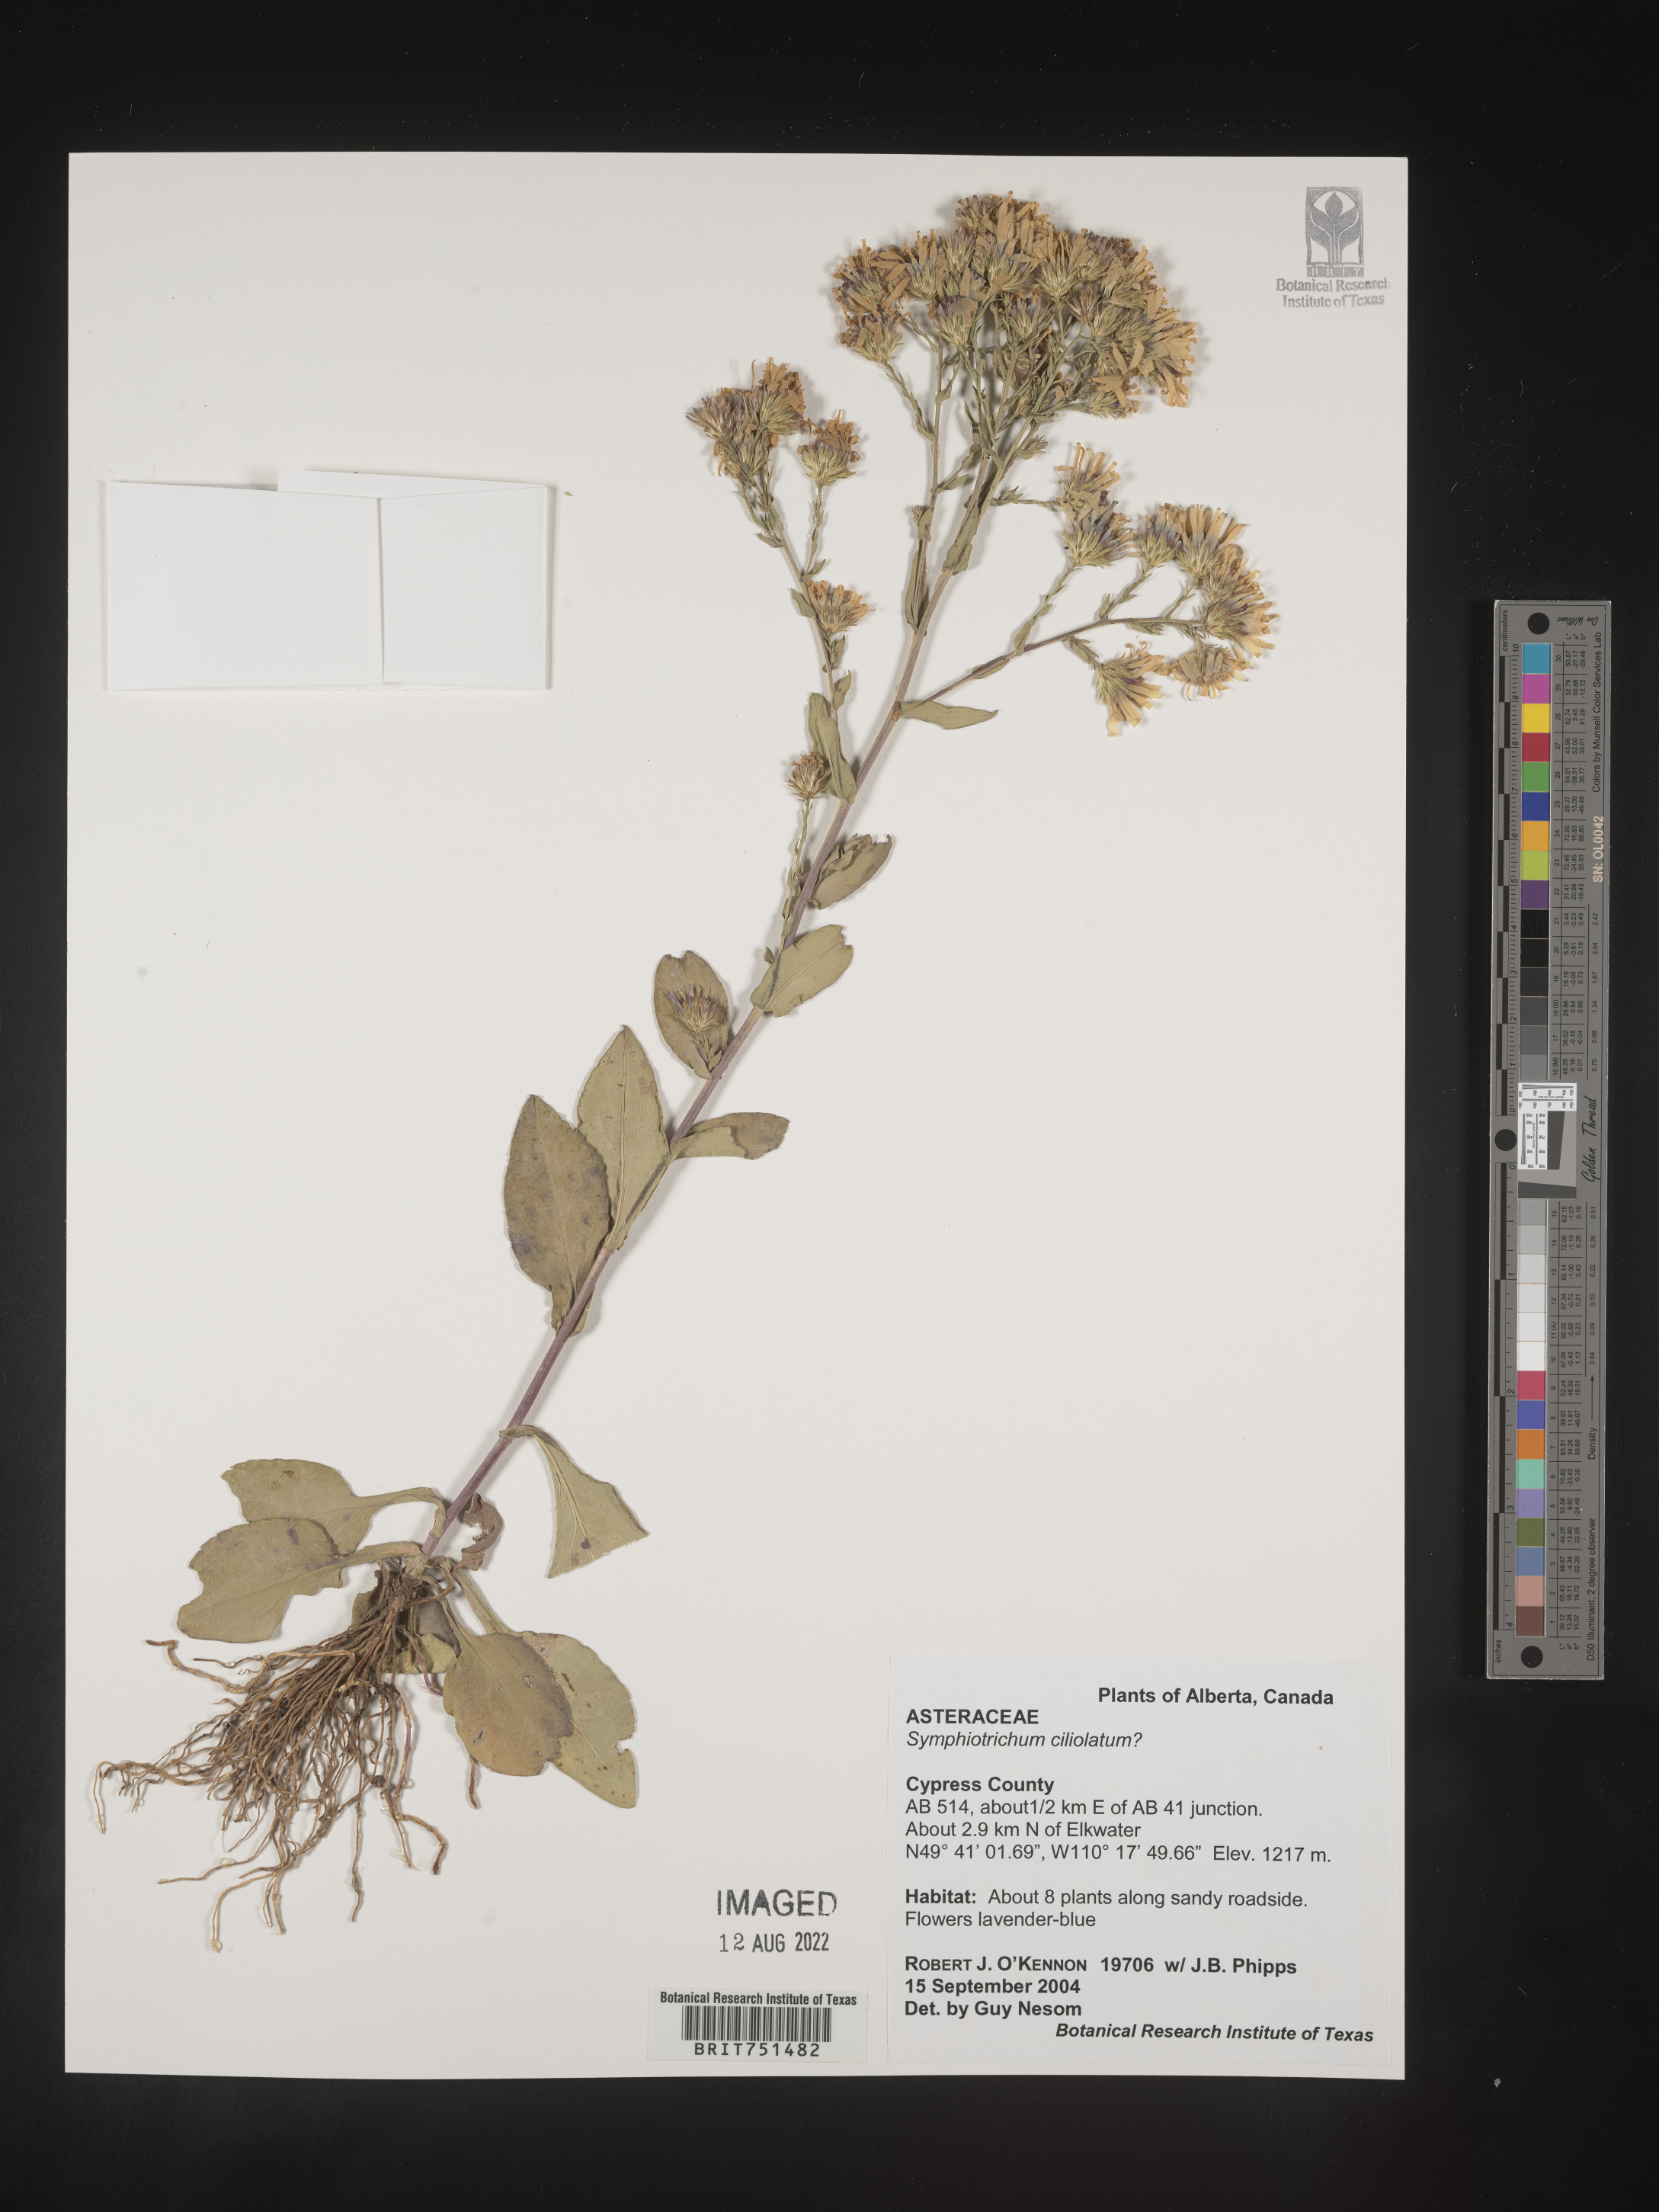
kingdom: Plantae
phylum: Tracheophyta
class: Magnoliopsida
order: Asterales
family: Asteraceae
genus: Symphyotrichum
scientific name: Symphyotrichum ciliolatum
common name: Fringed blue aster
